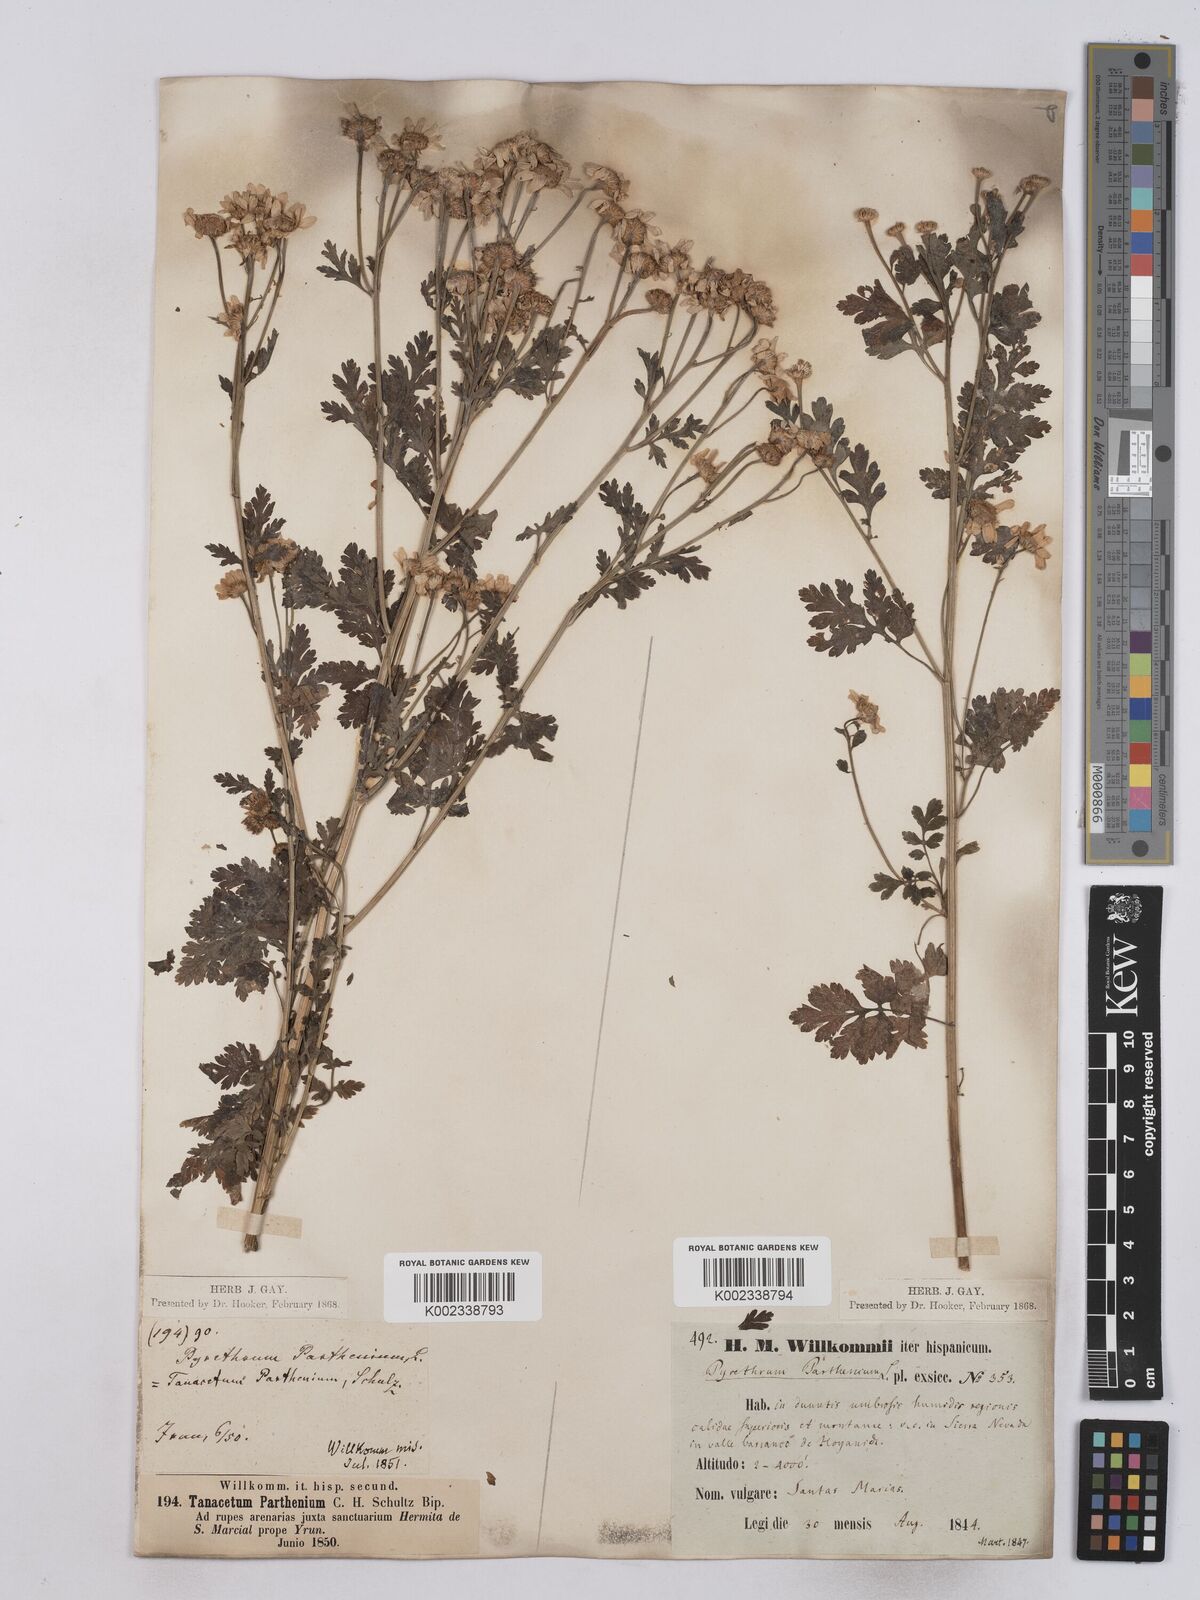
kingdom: Plantae
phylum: Tracheophyta
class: Magnoliopsida
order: Asterales
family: Asteraceae
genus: Tanacetum
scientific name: Tanacetum parthenium
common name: Feverfew
